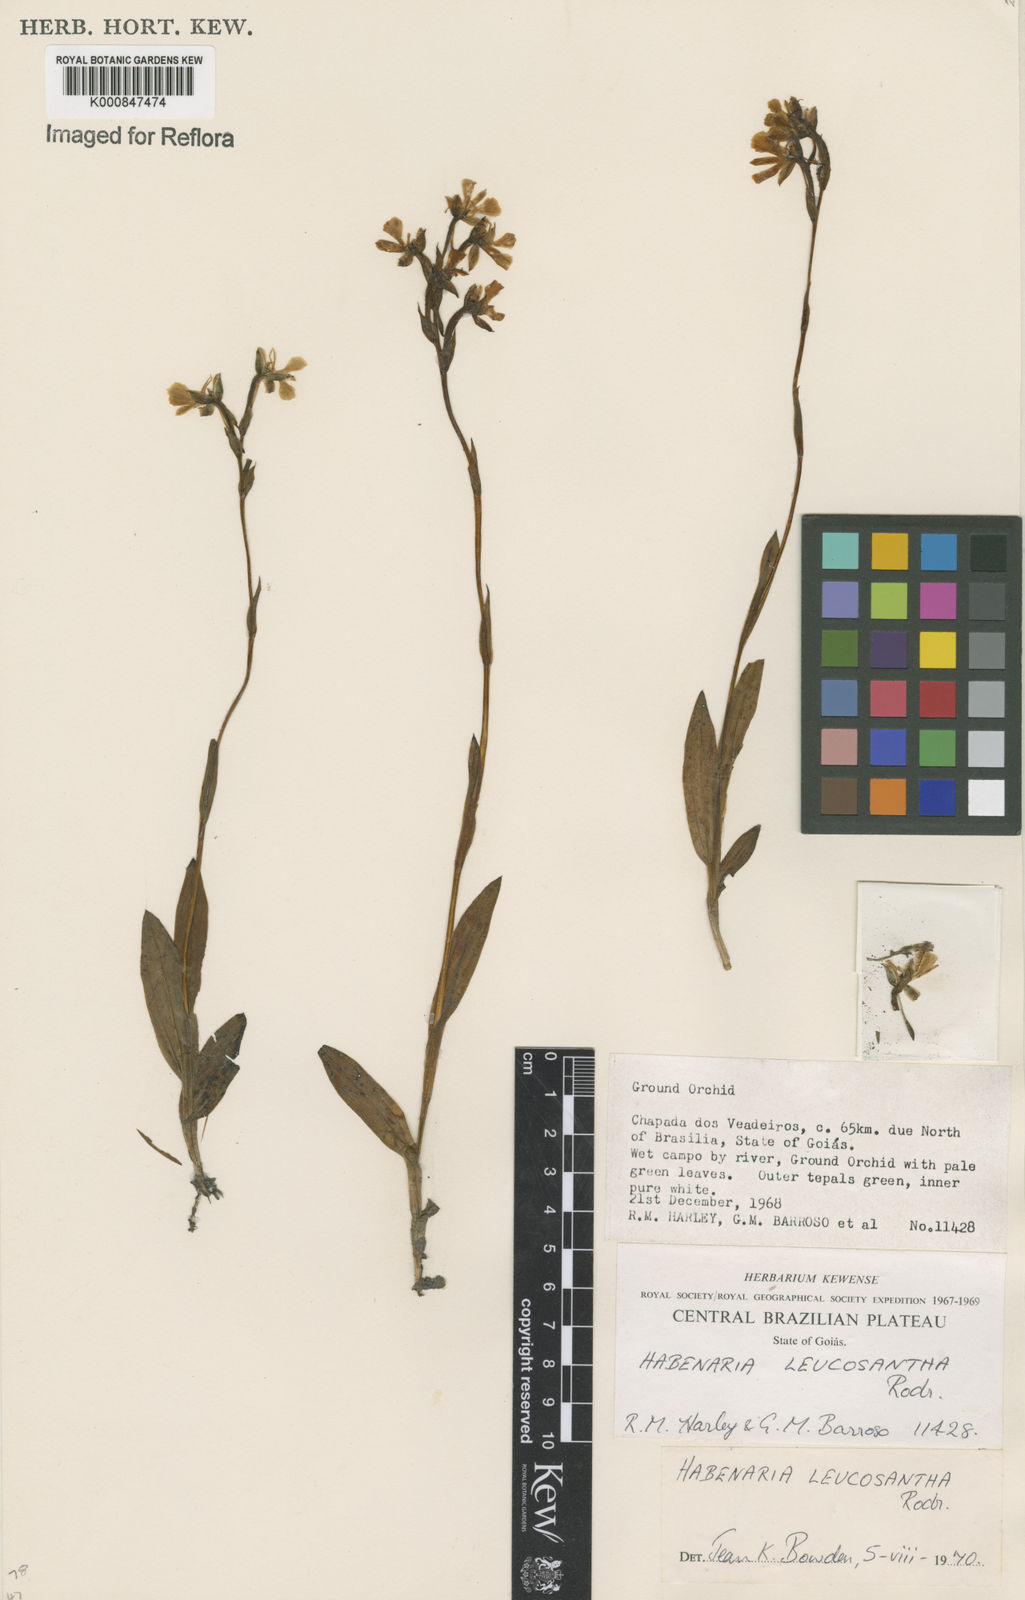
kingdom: Plantae
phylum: Tracheophyta
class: Liliopsida
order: Asparagales
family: Orchidaceae
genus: Habenaria
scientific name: Habenaria
